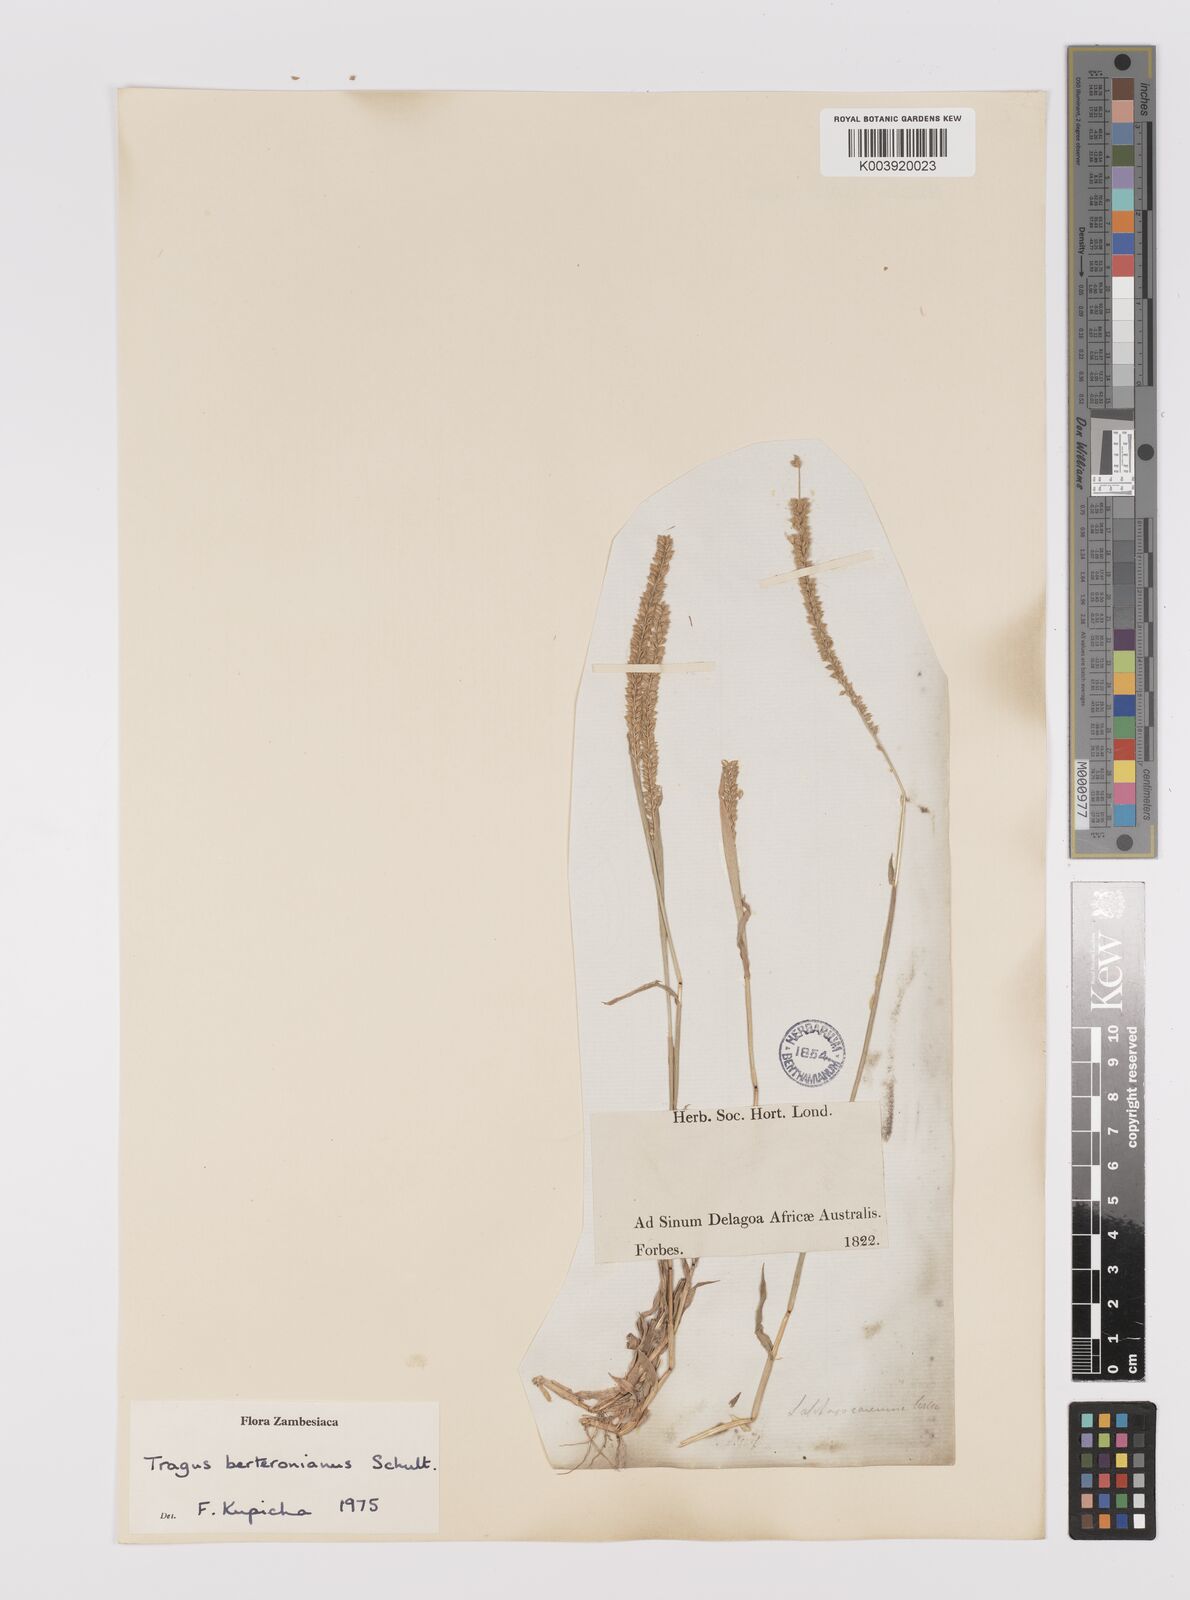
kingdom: Plantae
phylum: Tracheophyta
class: Liliopsida
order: Poales
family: Poaceae
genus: Tragus
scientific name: Tragus berteronianus
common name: African bur-grass
